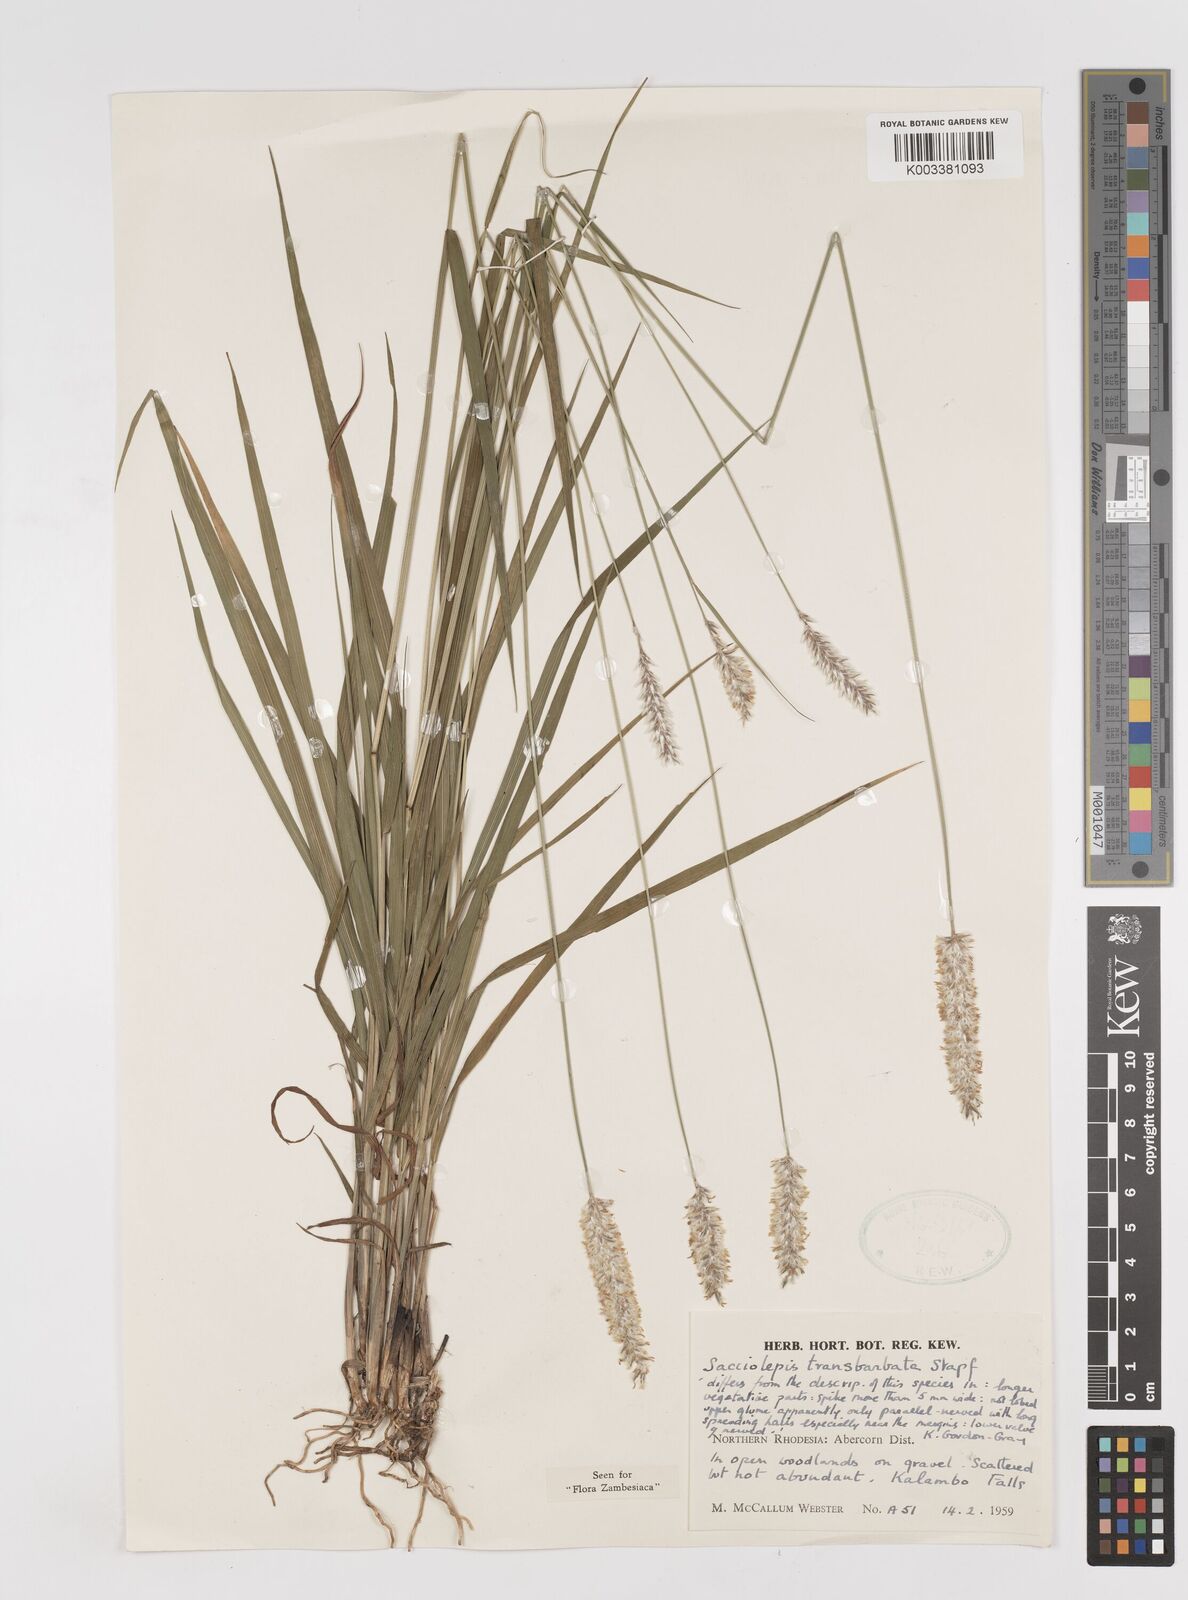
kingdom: Plantae
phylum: Tracheophyta
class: Liliopsida
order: Poales
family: Poaceae
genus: Sacciolepis
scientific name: Sacciolepis transbarbata
